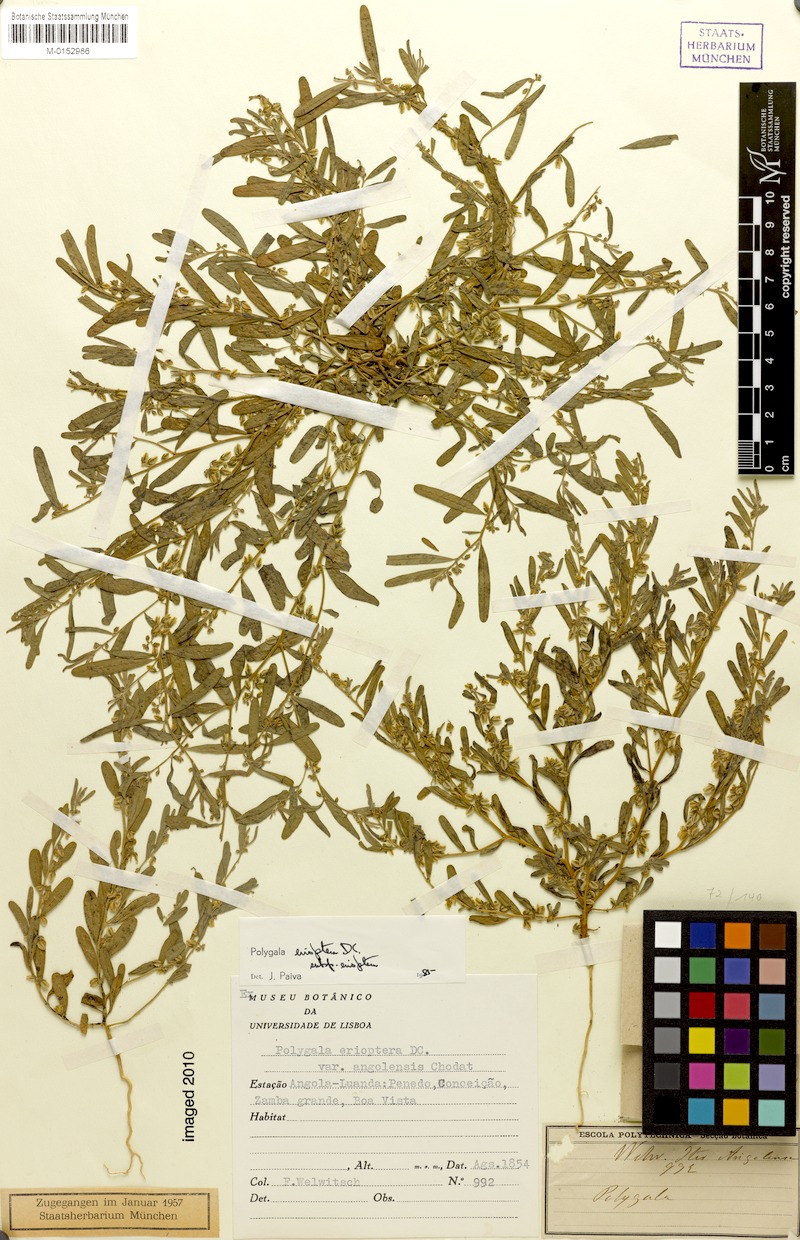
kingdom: Plantae
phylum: Tracheophyta
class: Magnoliopsida
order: Fabales
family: Polygalaceae
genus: Polygala
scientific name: Polygala erioptera
